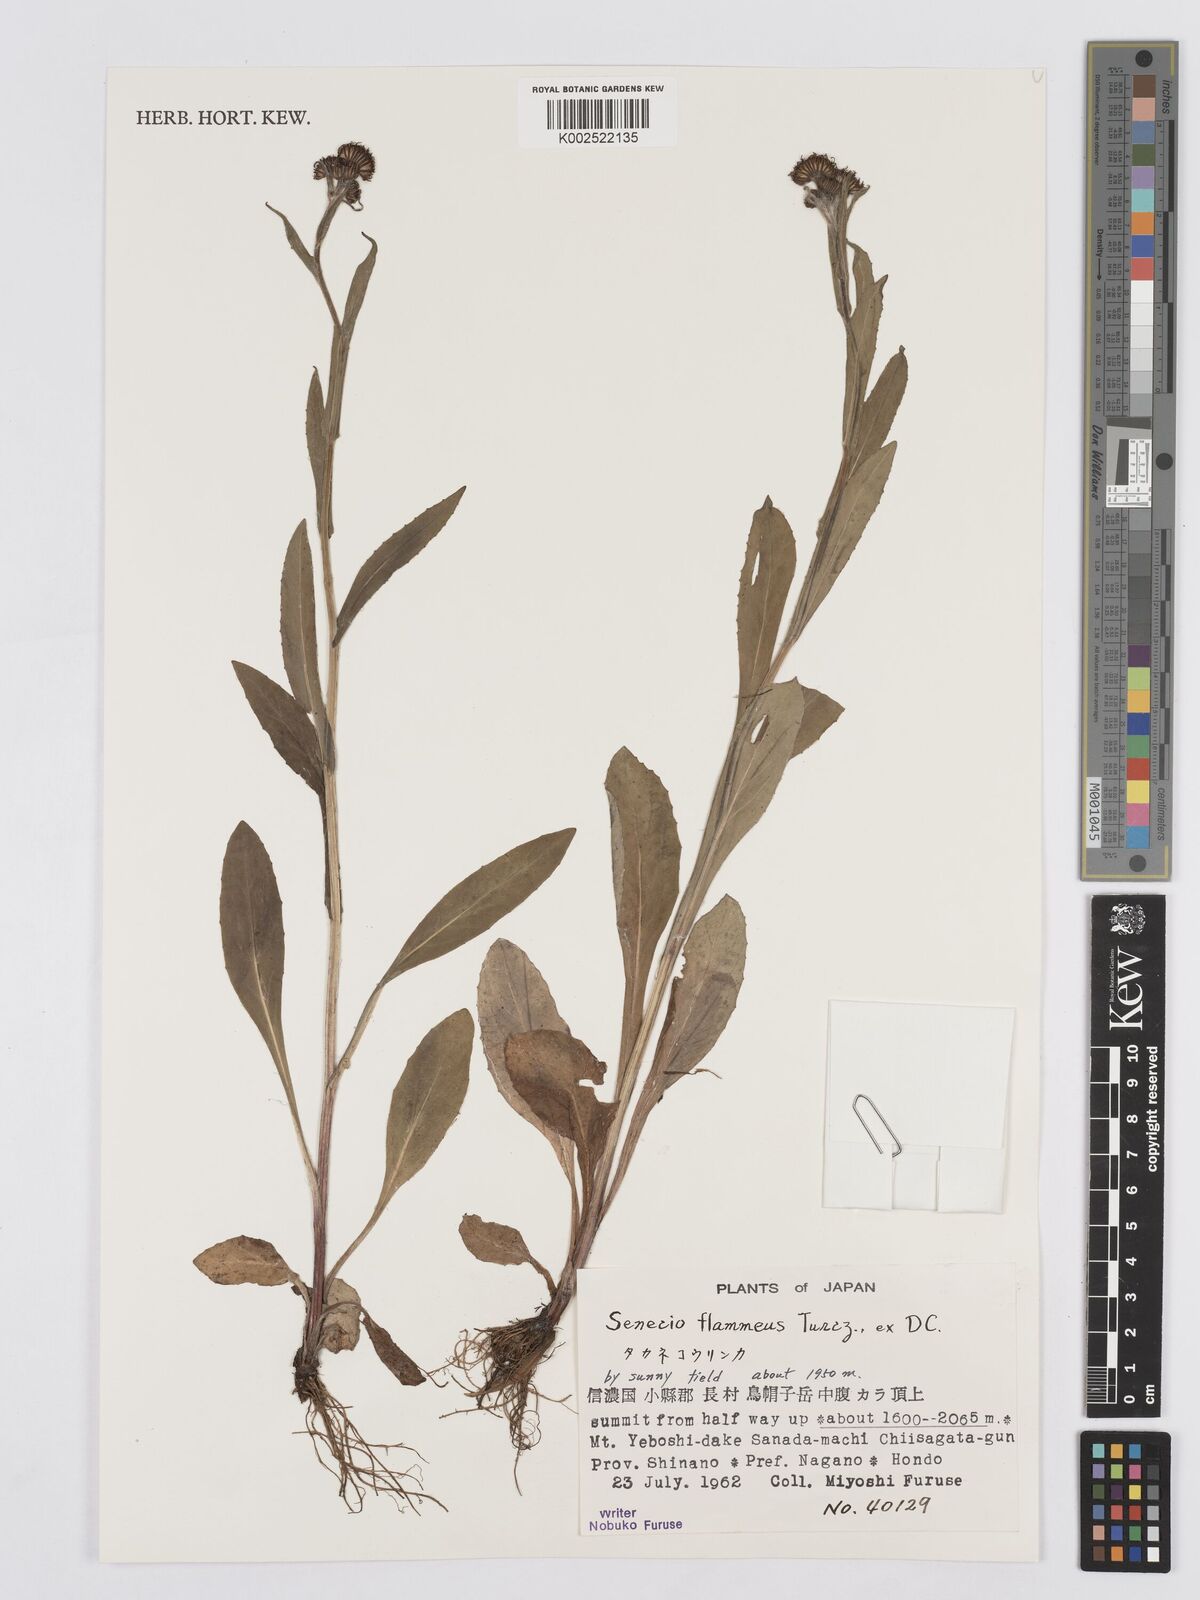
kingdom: Plantae
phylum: Tracheophyta
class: Magnoliopsida
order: Asterales
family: Asteraceae
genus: Tephroseris
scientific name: Tephroseris flammea
